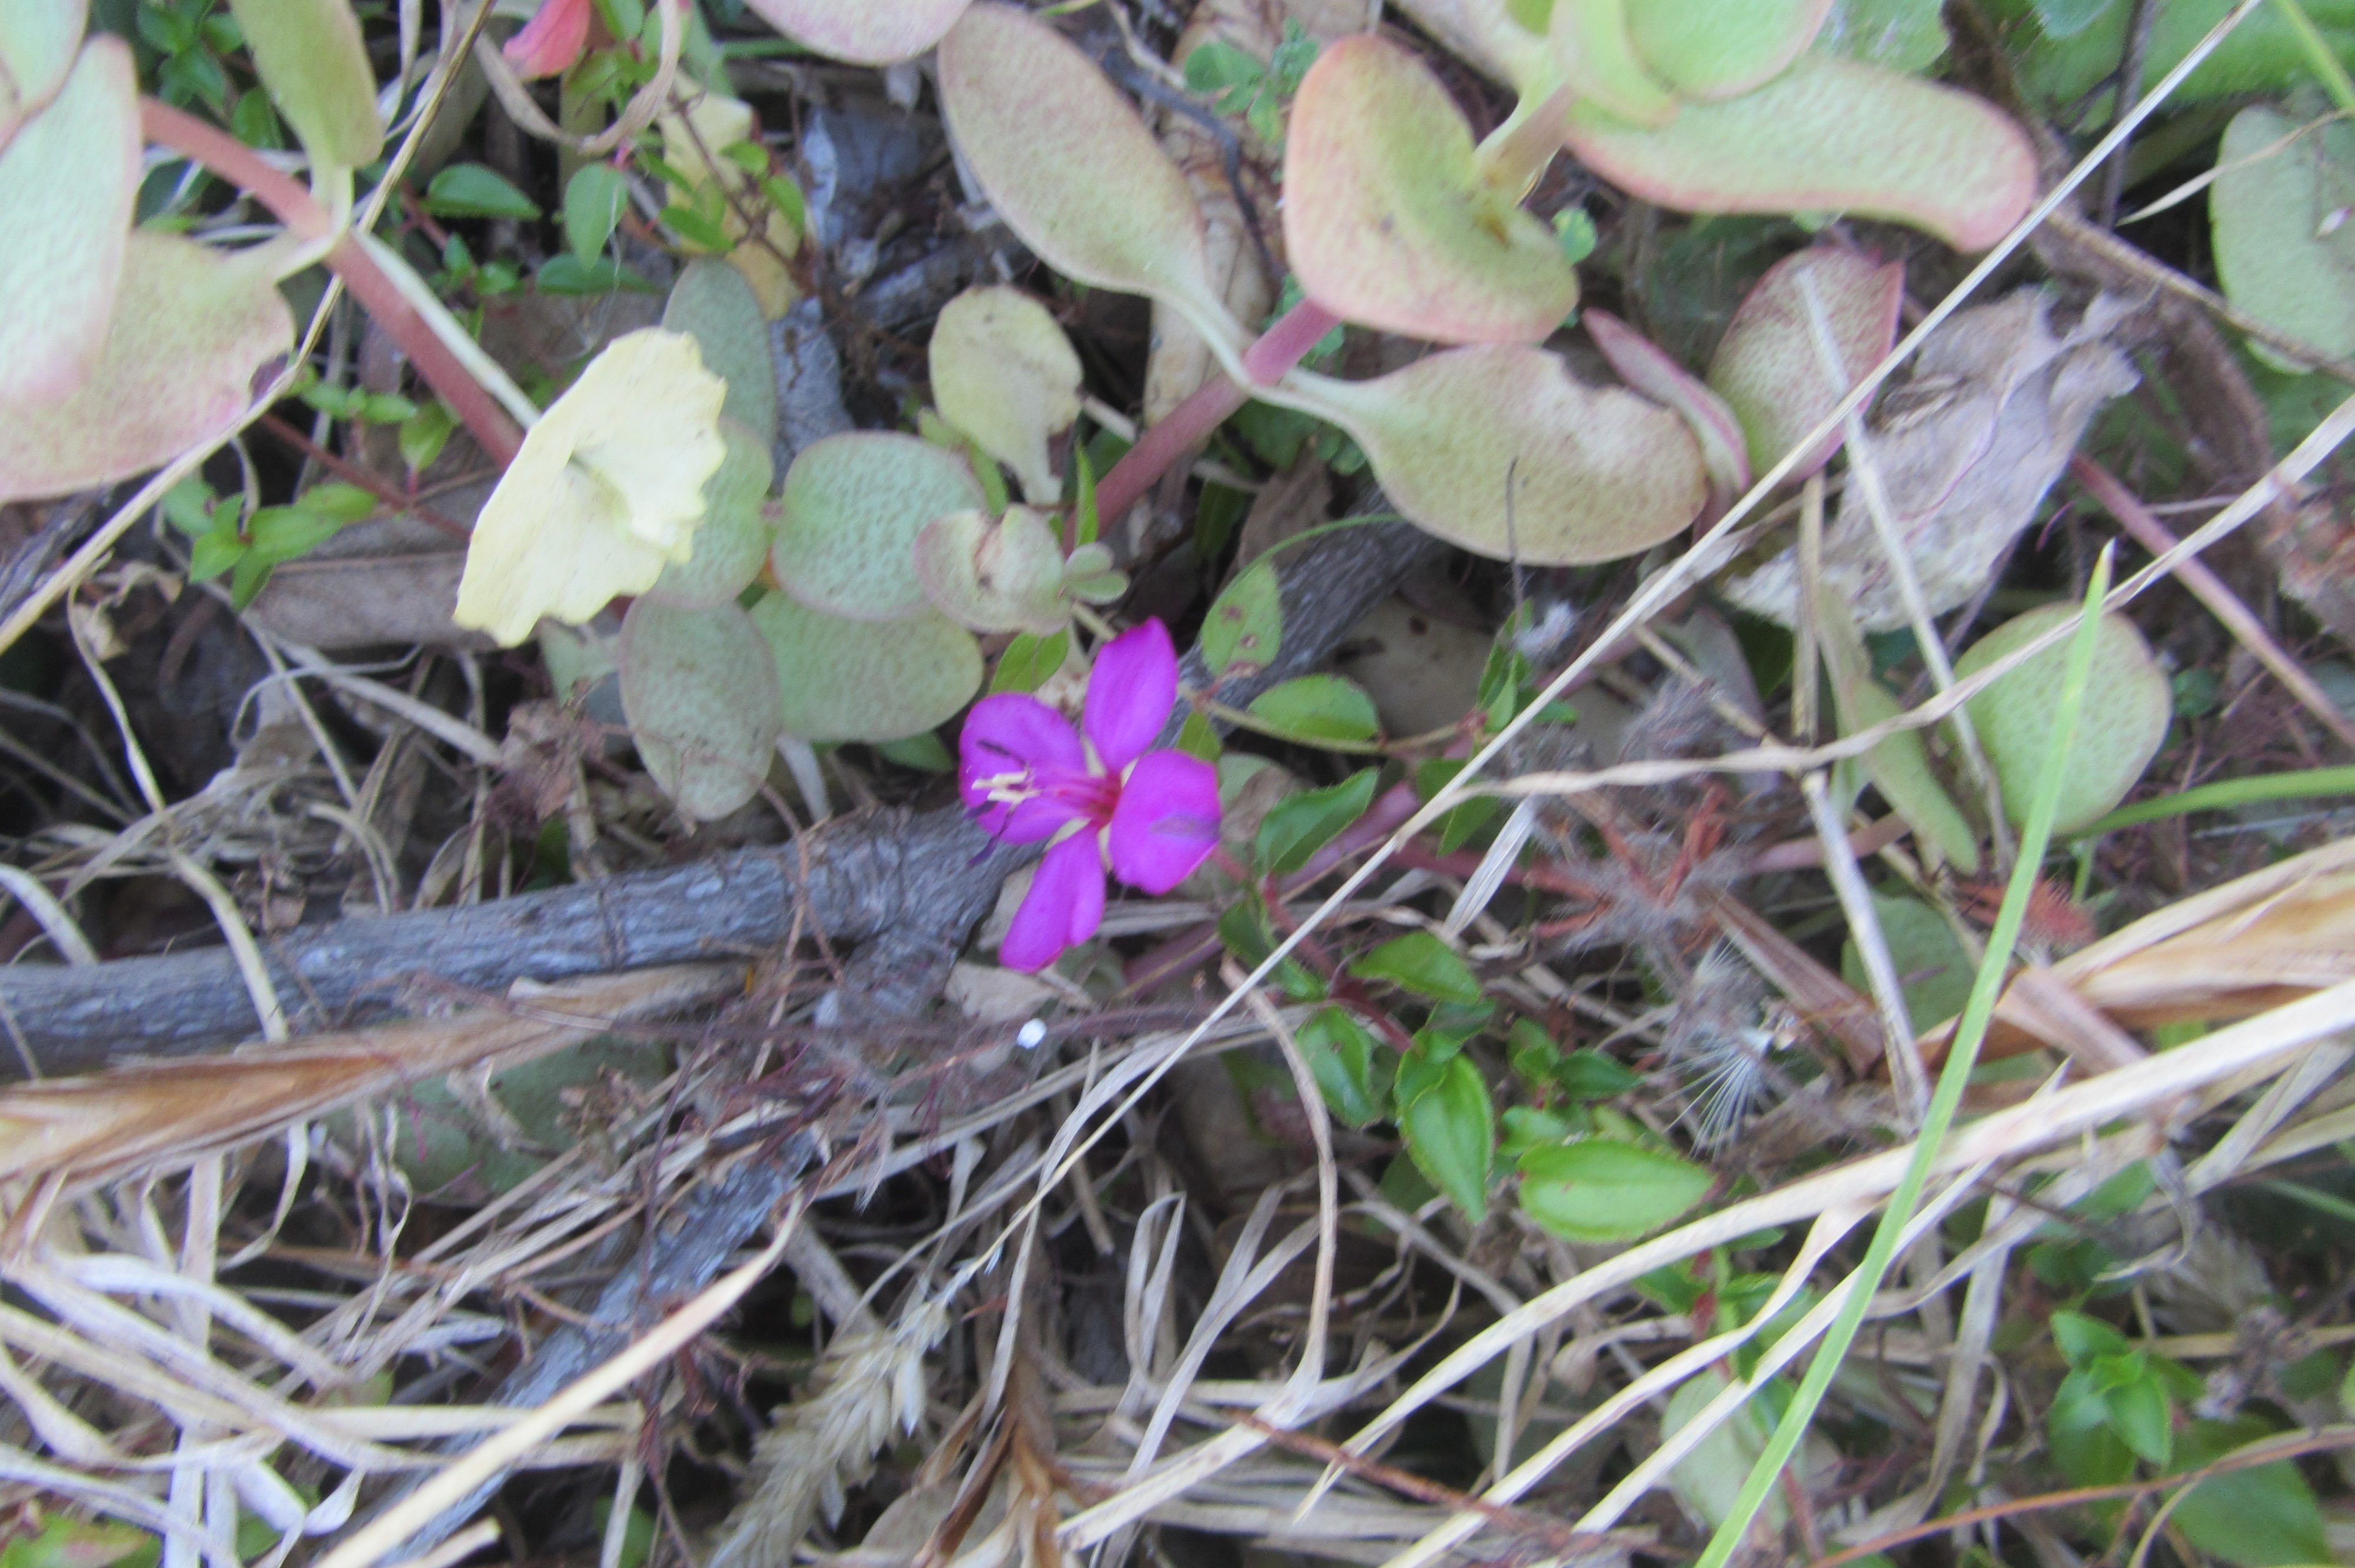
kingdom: Plantae
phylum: Tracheophyta
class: Magnoliopsida
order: Saxifragales
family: Crassulaceae
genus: Crassula
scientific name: Crassula multicava
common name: Cape province pygmyweed
